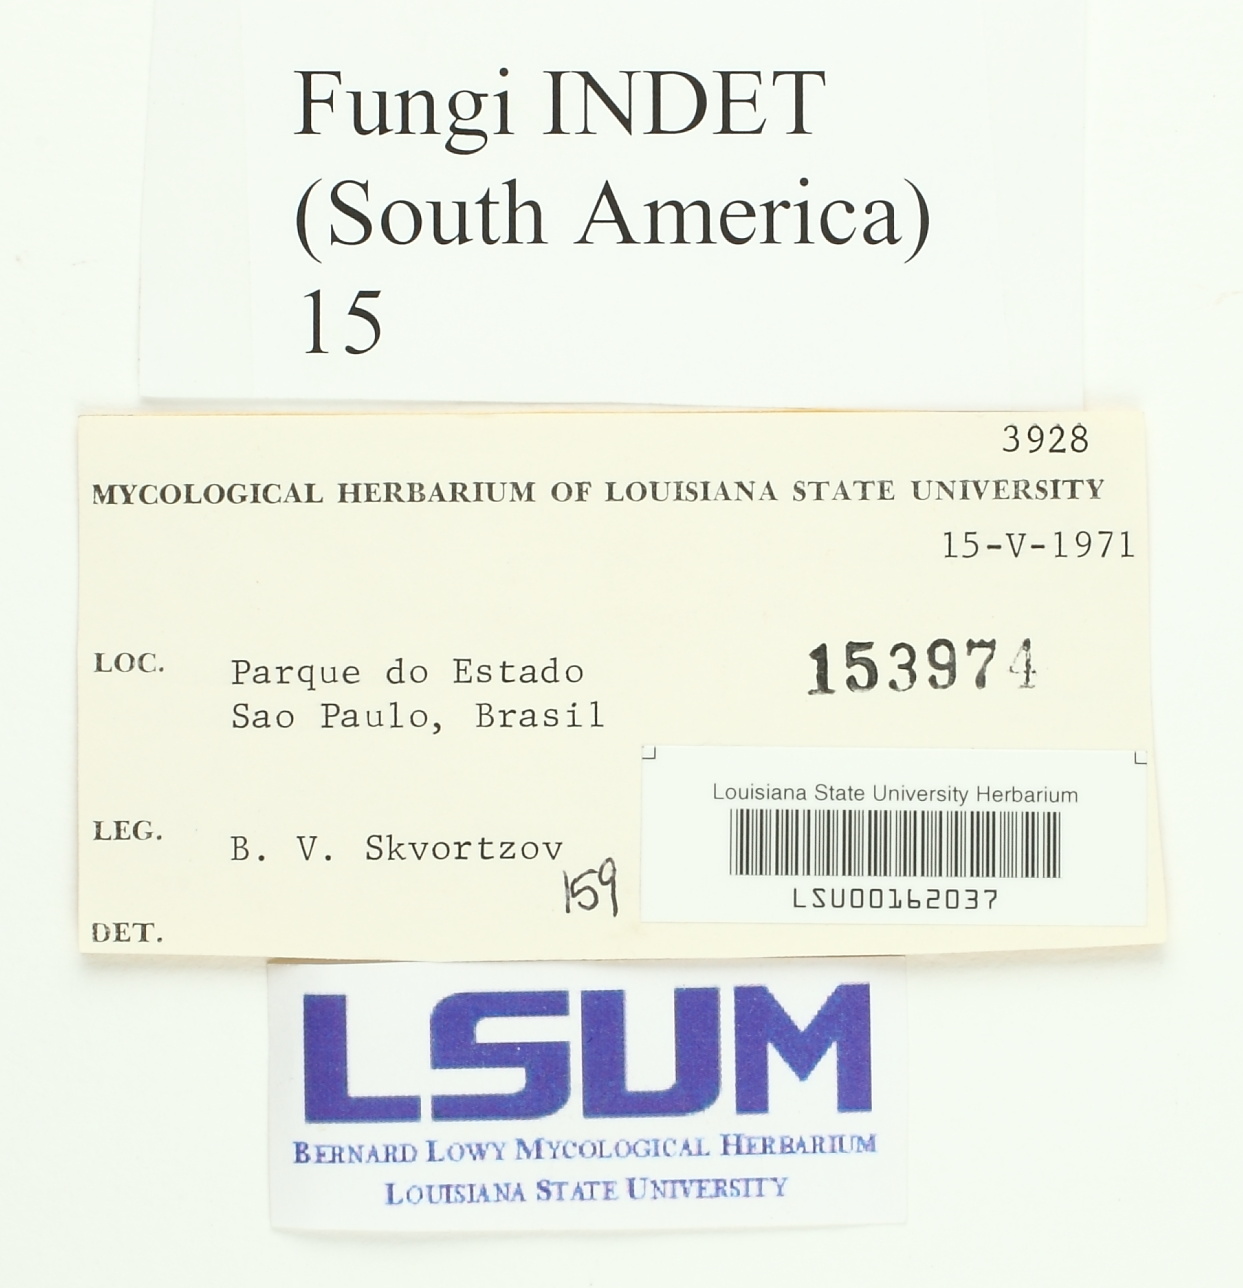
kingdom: Fungi
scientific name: Fungi
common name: Fungi
